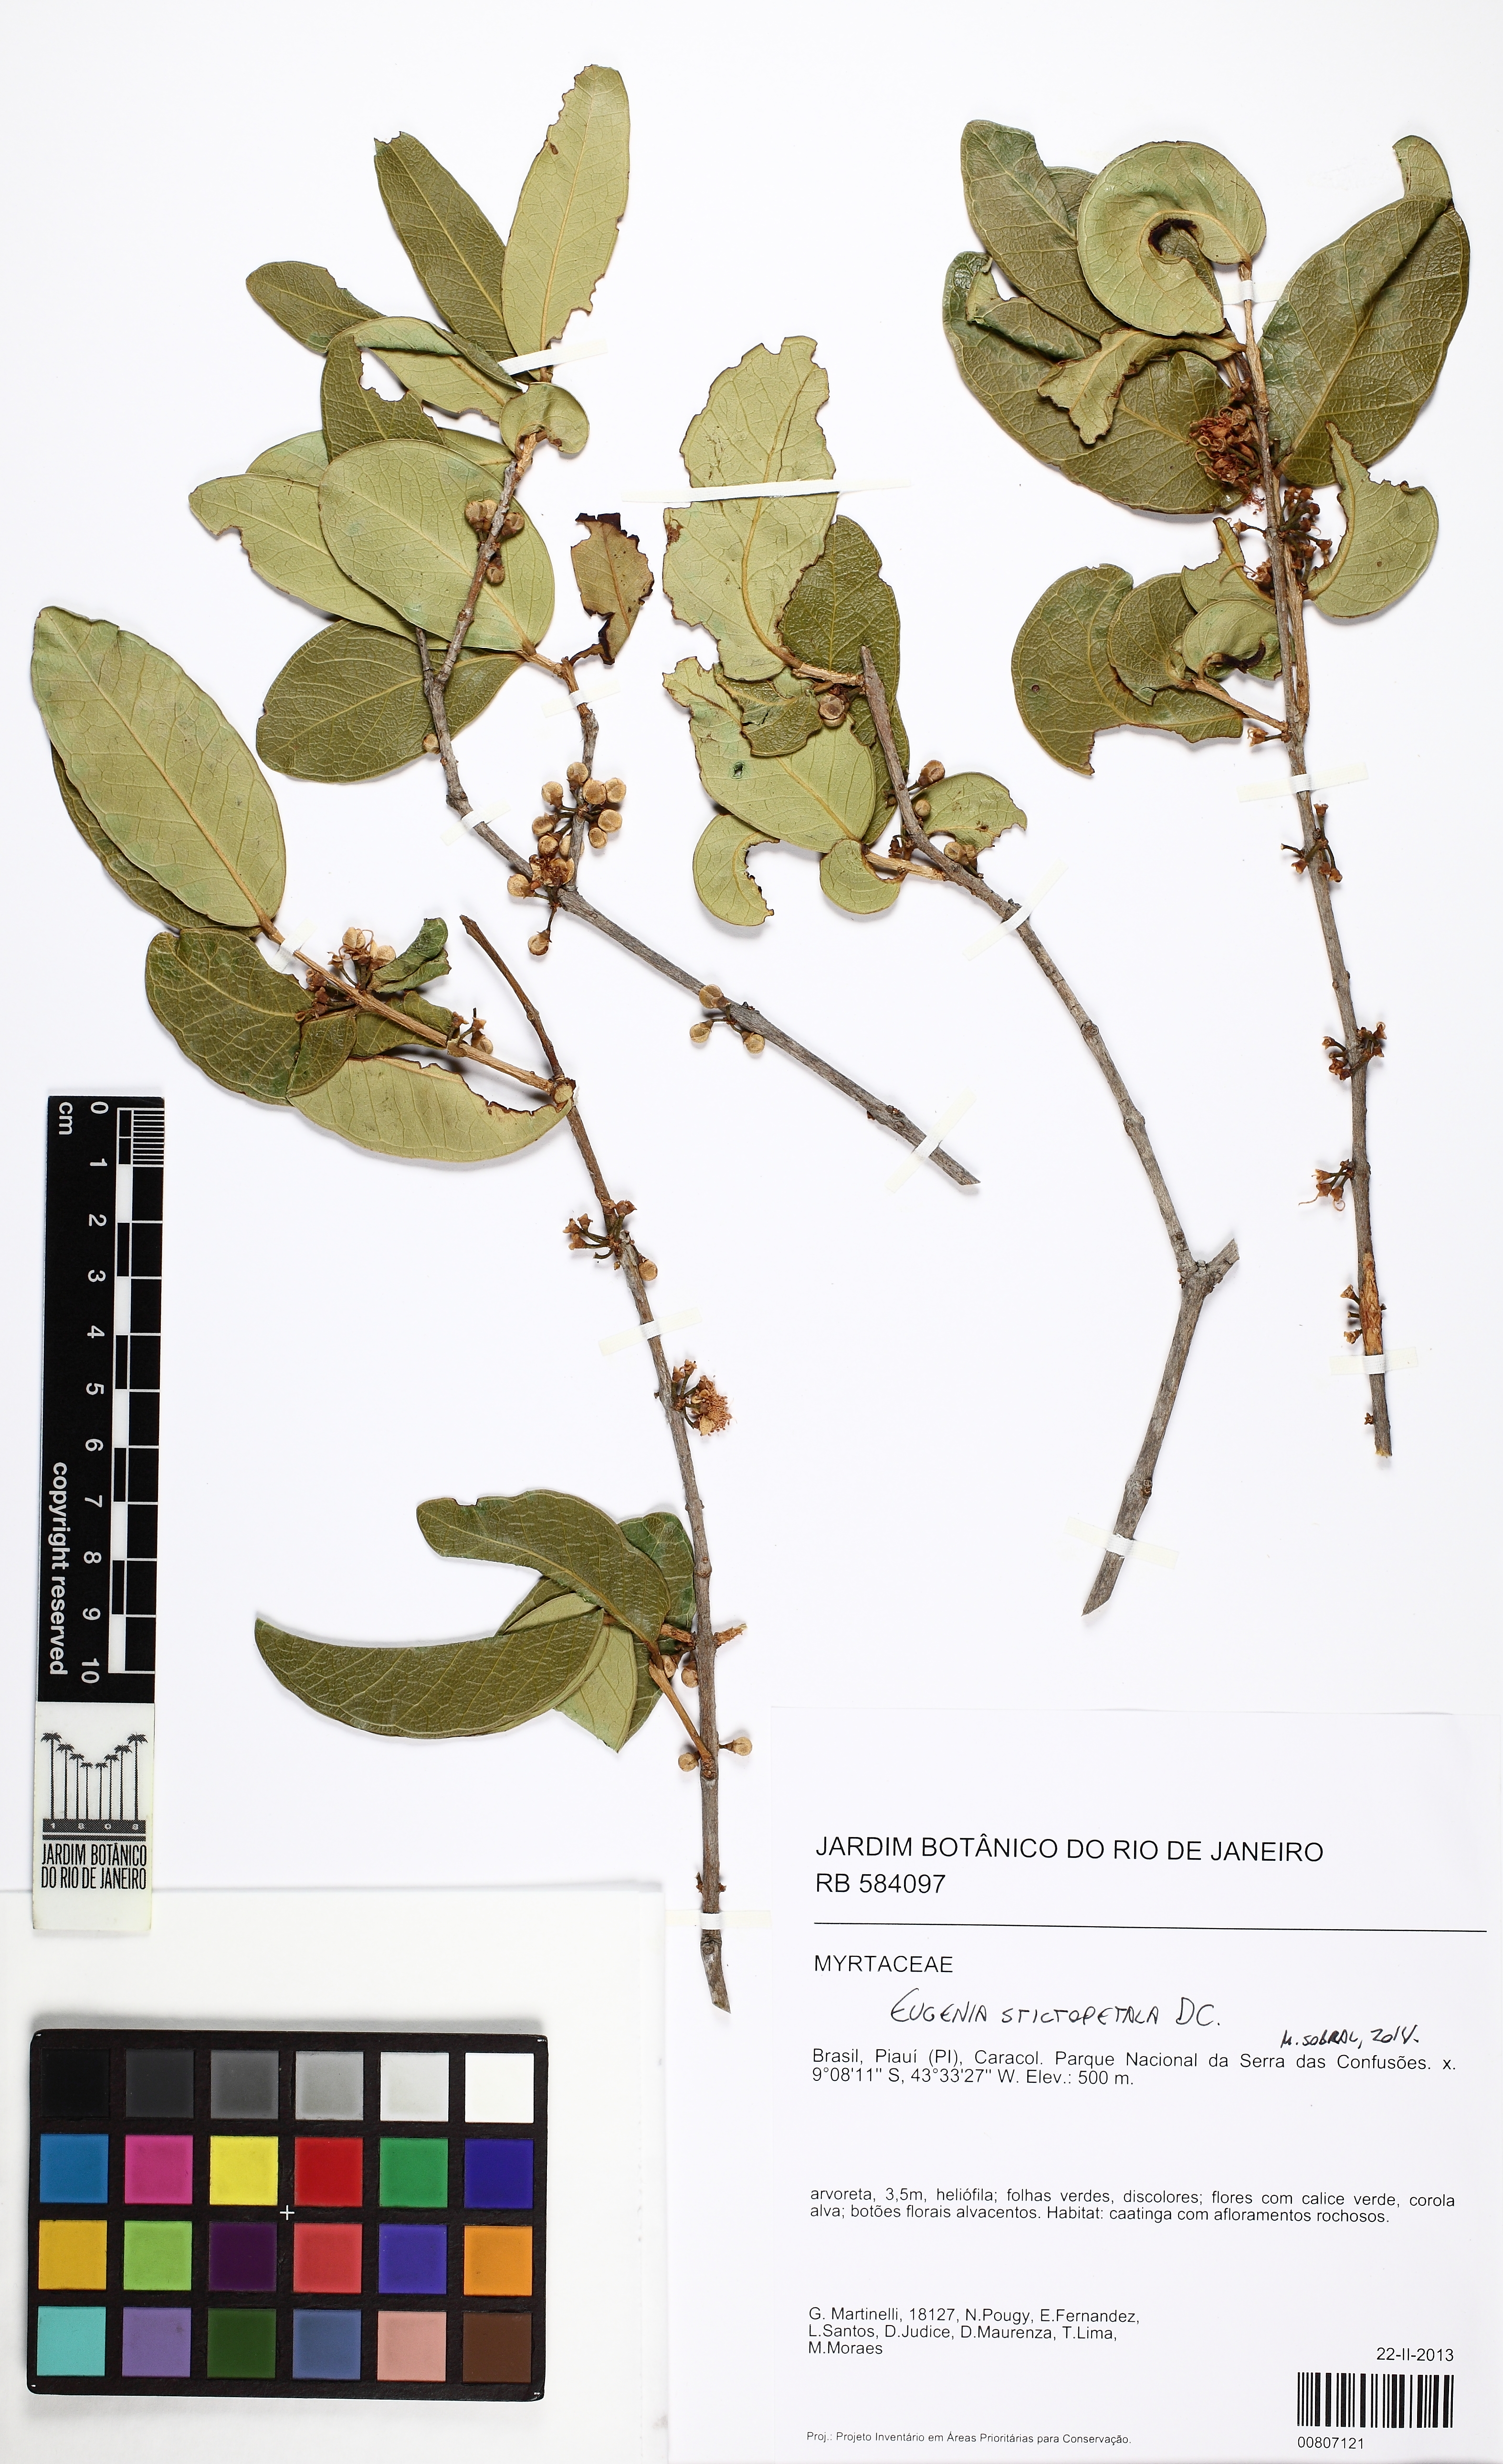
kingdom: Plantae
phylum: Tracheophyta
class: Magnoliopsida
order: Myrtales
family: Myrtaceae
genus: Eugenia
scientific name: Eugenia stictopetala
